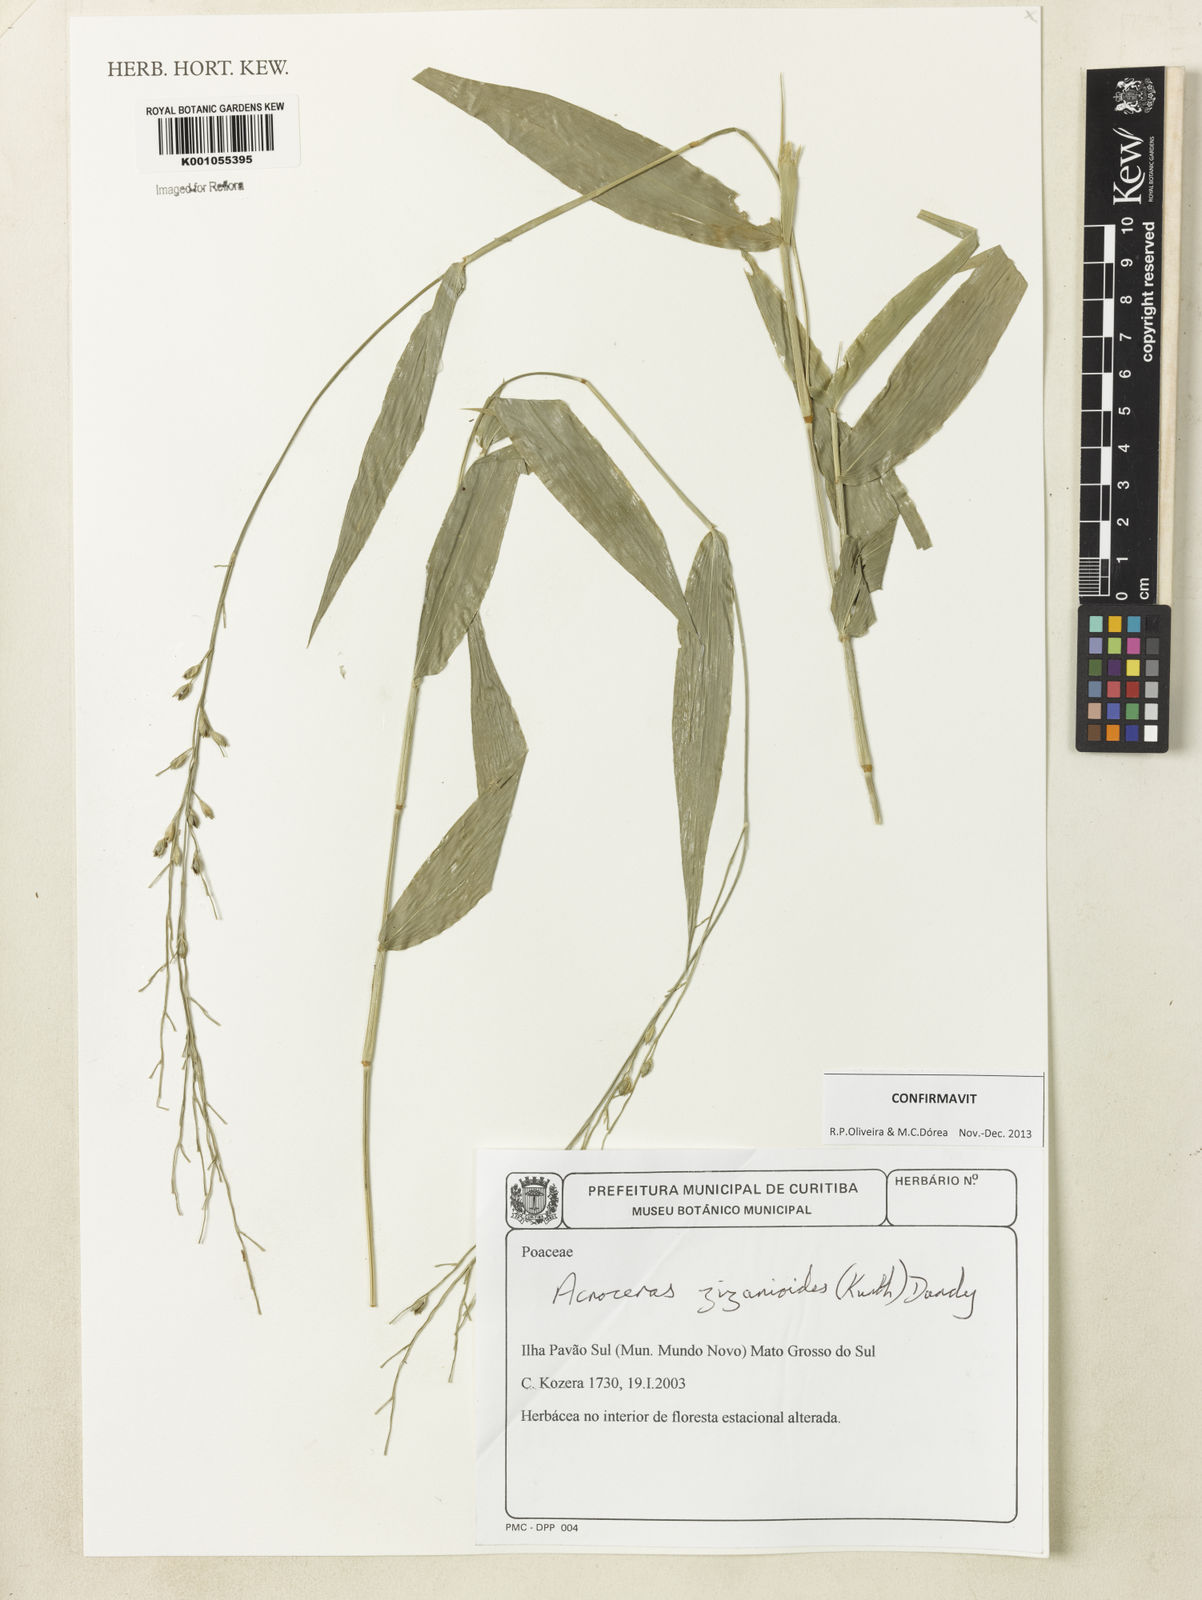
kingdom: Plantae
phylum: Tracheophyta
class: Liliopsida
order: Poales
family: Poaceae
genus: Acroceras
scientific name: Acroceras zizanioides
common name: Oat grass
